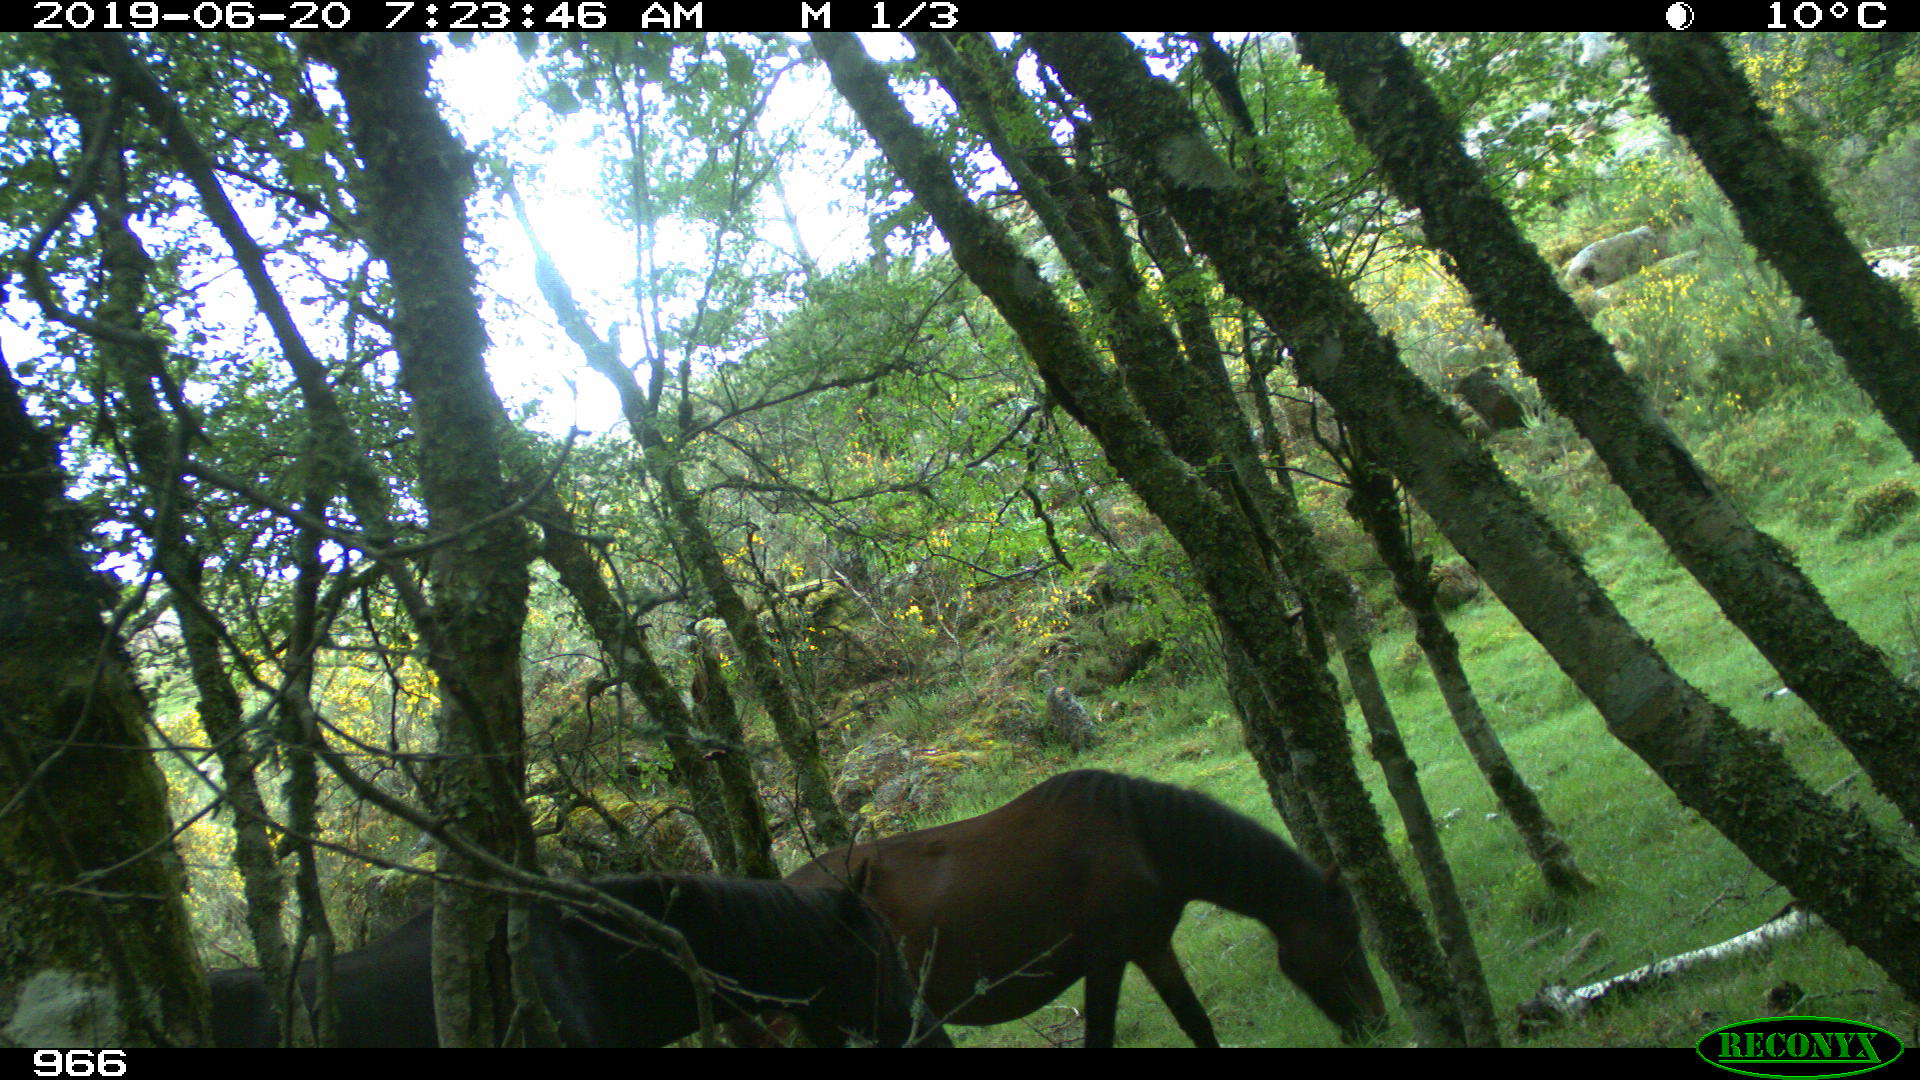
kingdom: Animalia
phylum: Chordata
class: Mammalia
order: Perissodactyla
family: Equidae
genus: Equus
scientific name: Equus caballus
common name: Horse
